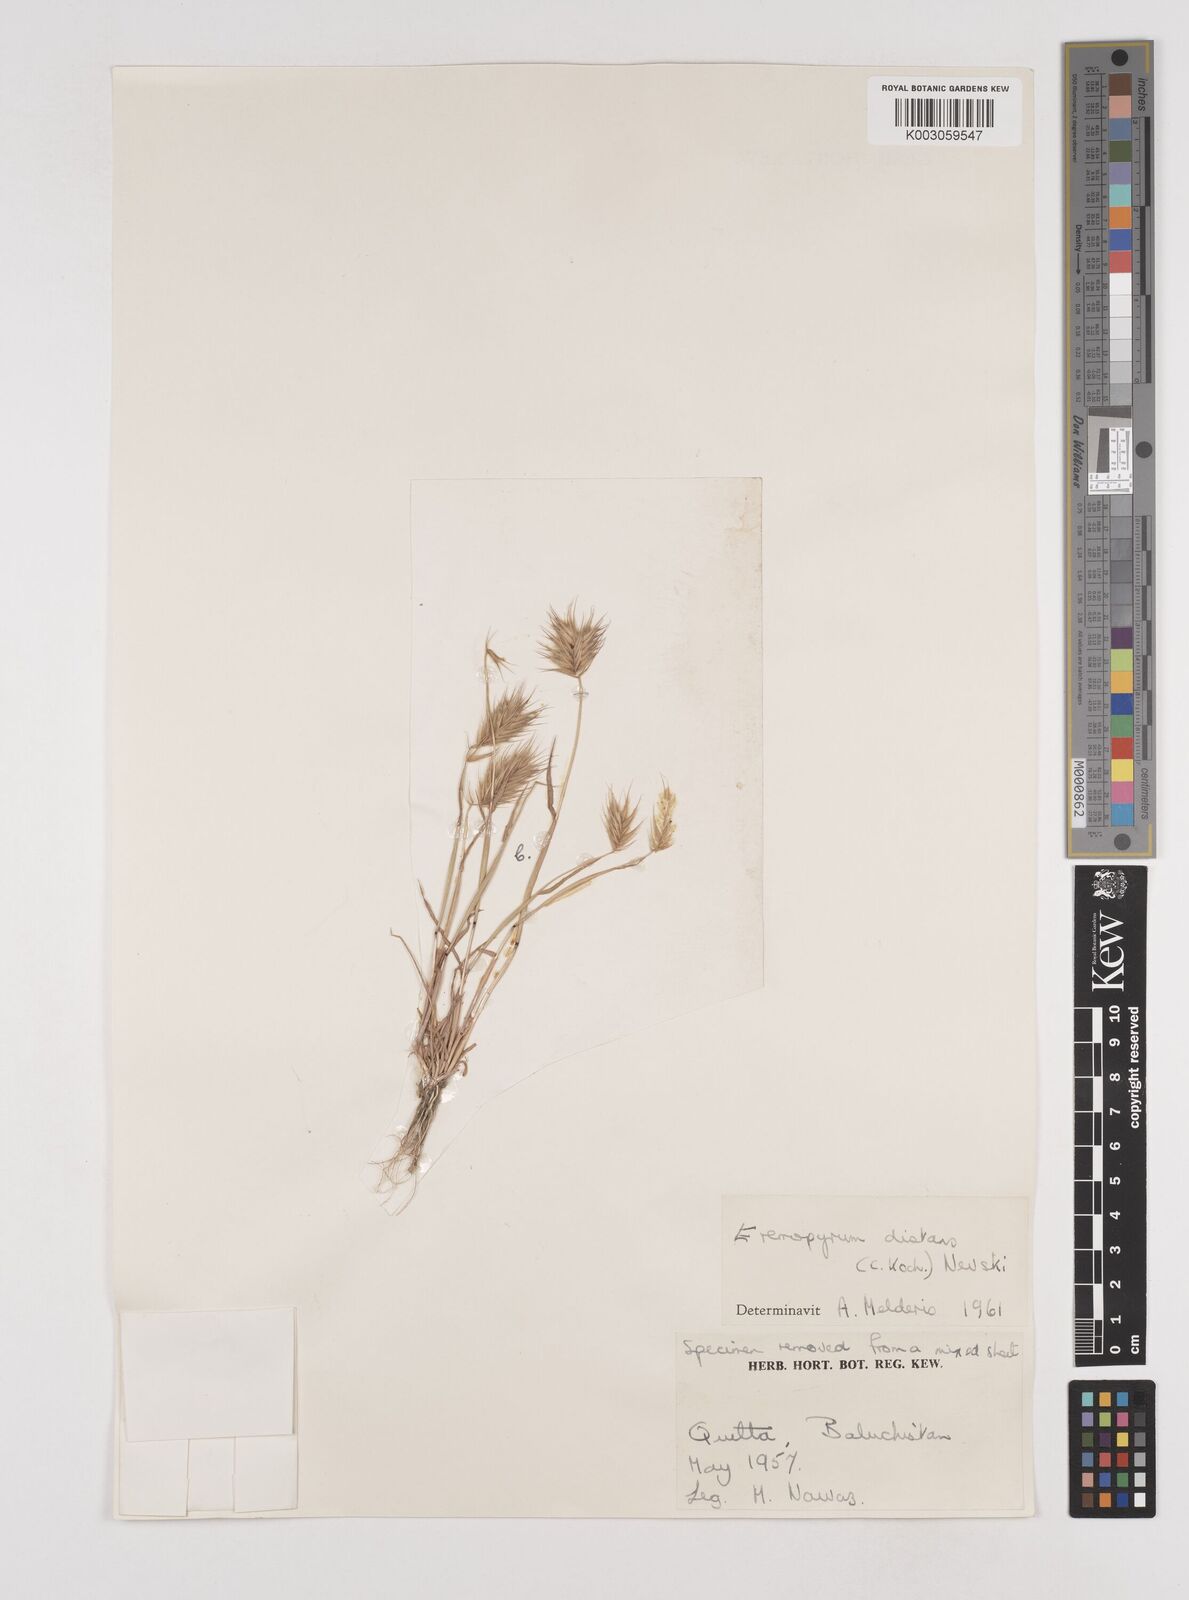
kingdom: Plantae
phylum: Tracheophyta
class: Liliopsida
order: Poales
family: Poaceae
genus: Eremopyrum
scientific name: Eremopyrum distans
